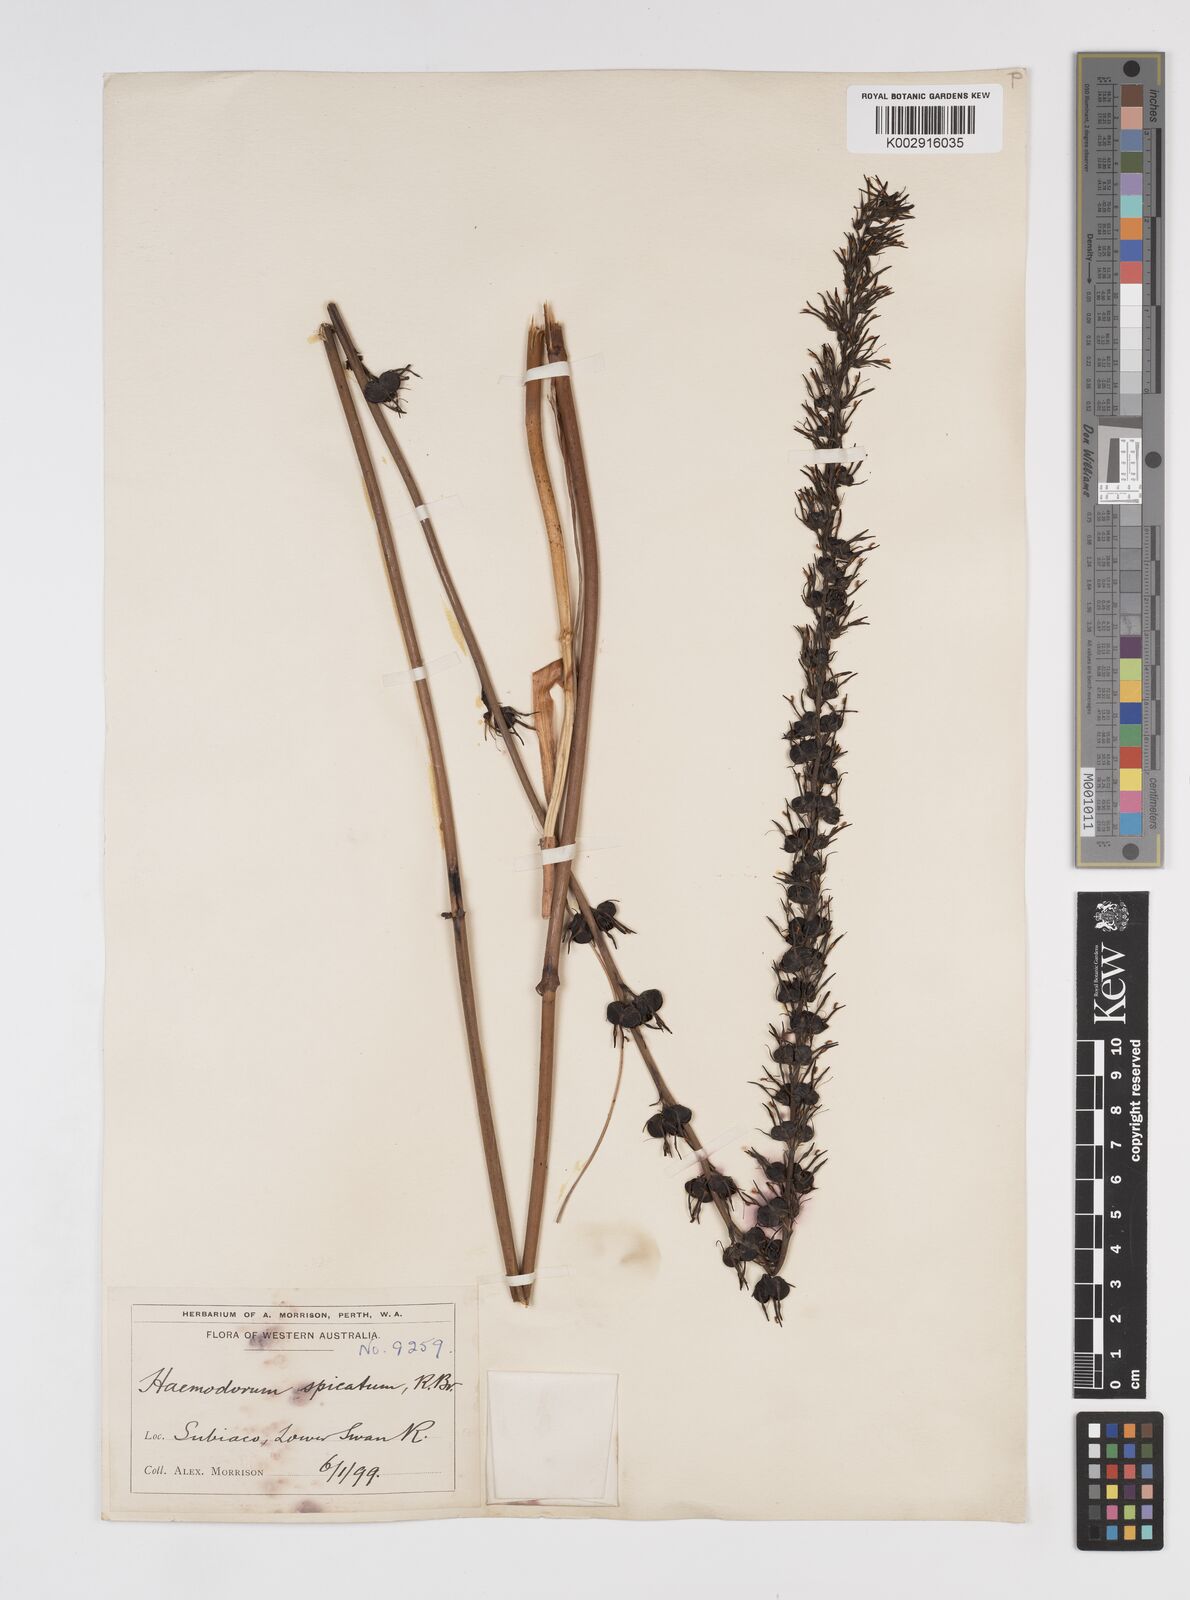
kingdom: Plantae
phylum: Tracheophyta
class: Liliopsida
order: Commelinales
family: Haemodoraceae
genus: Haemodorum
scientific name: Haemodorum spicatum
